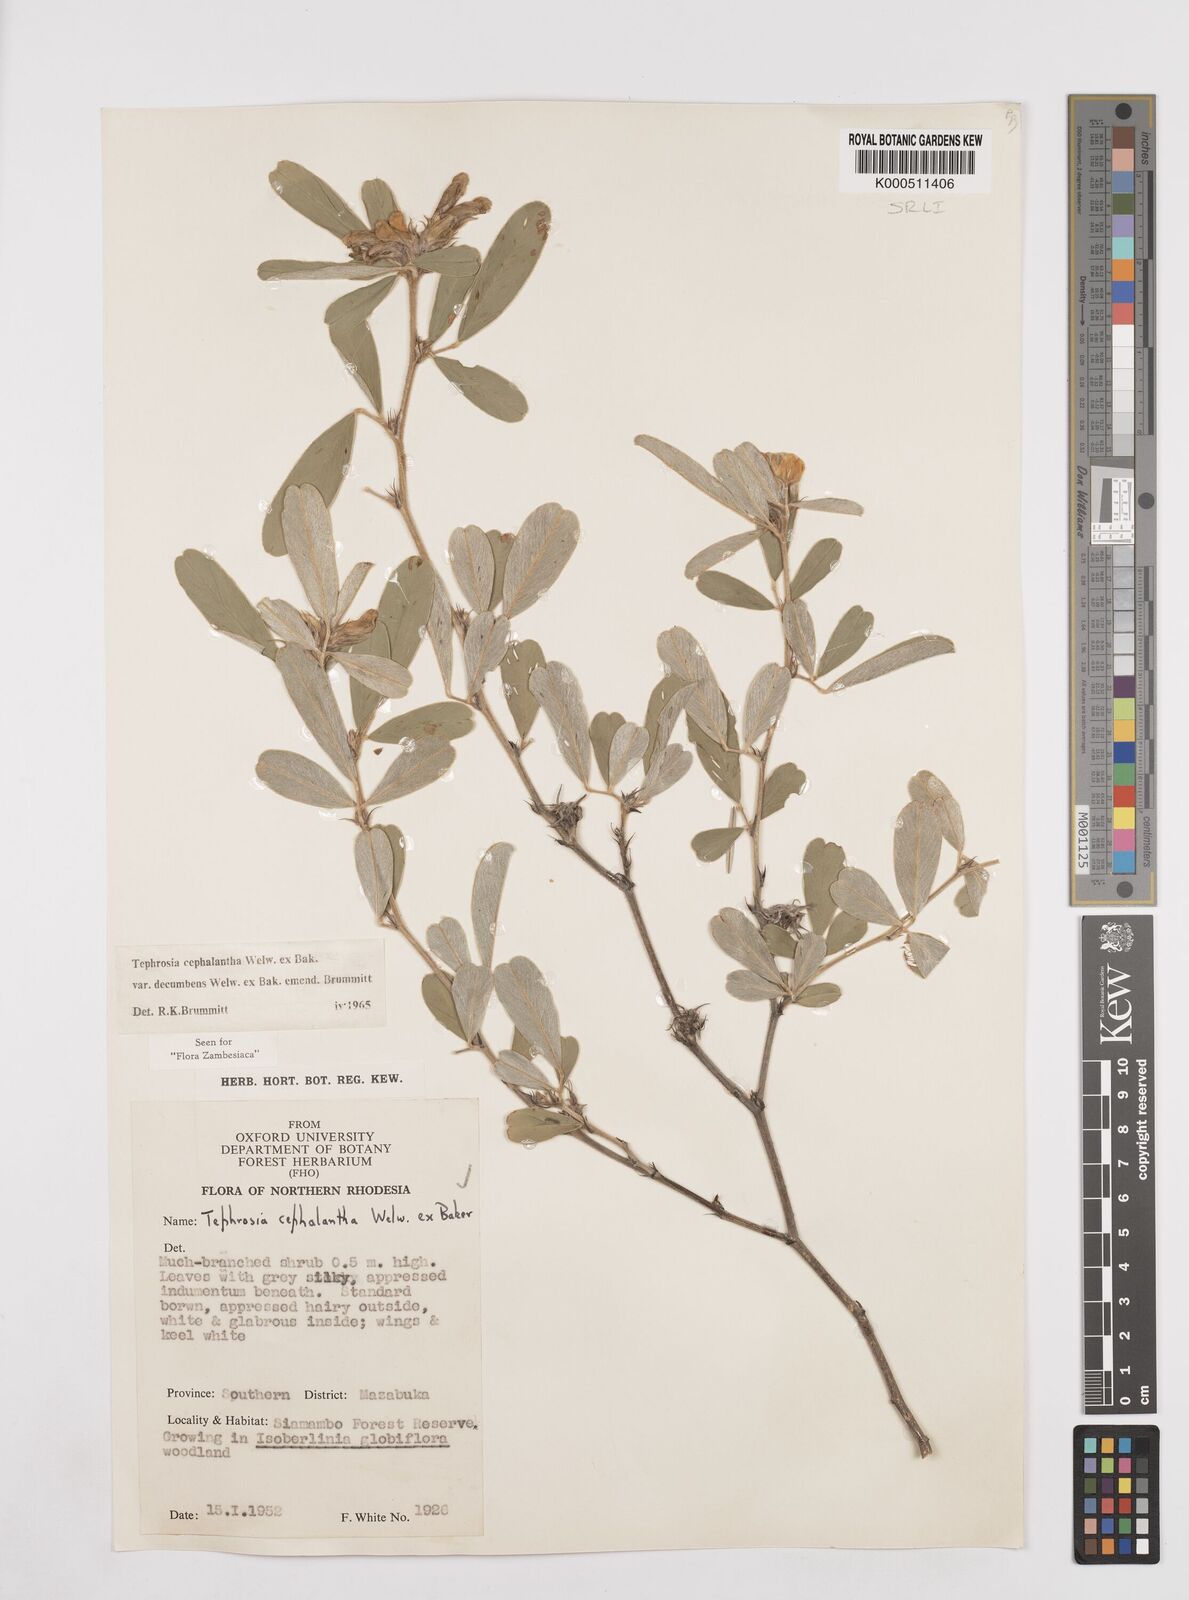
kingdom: Plantae
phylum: Tracheophyta
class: Magnoliopsida
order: Fabales
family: Fabaceae
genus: Tephrosia
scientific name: Tephrosia
